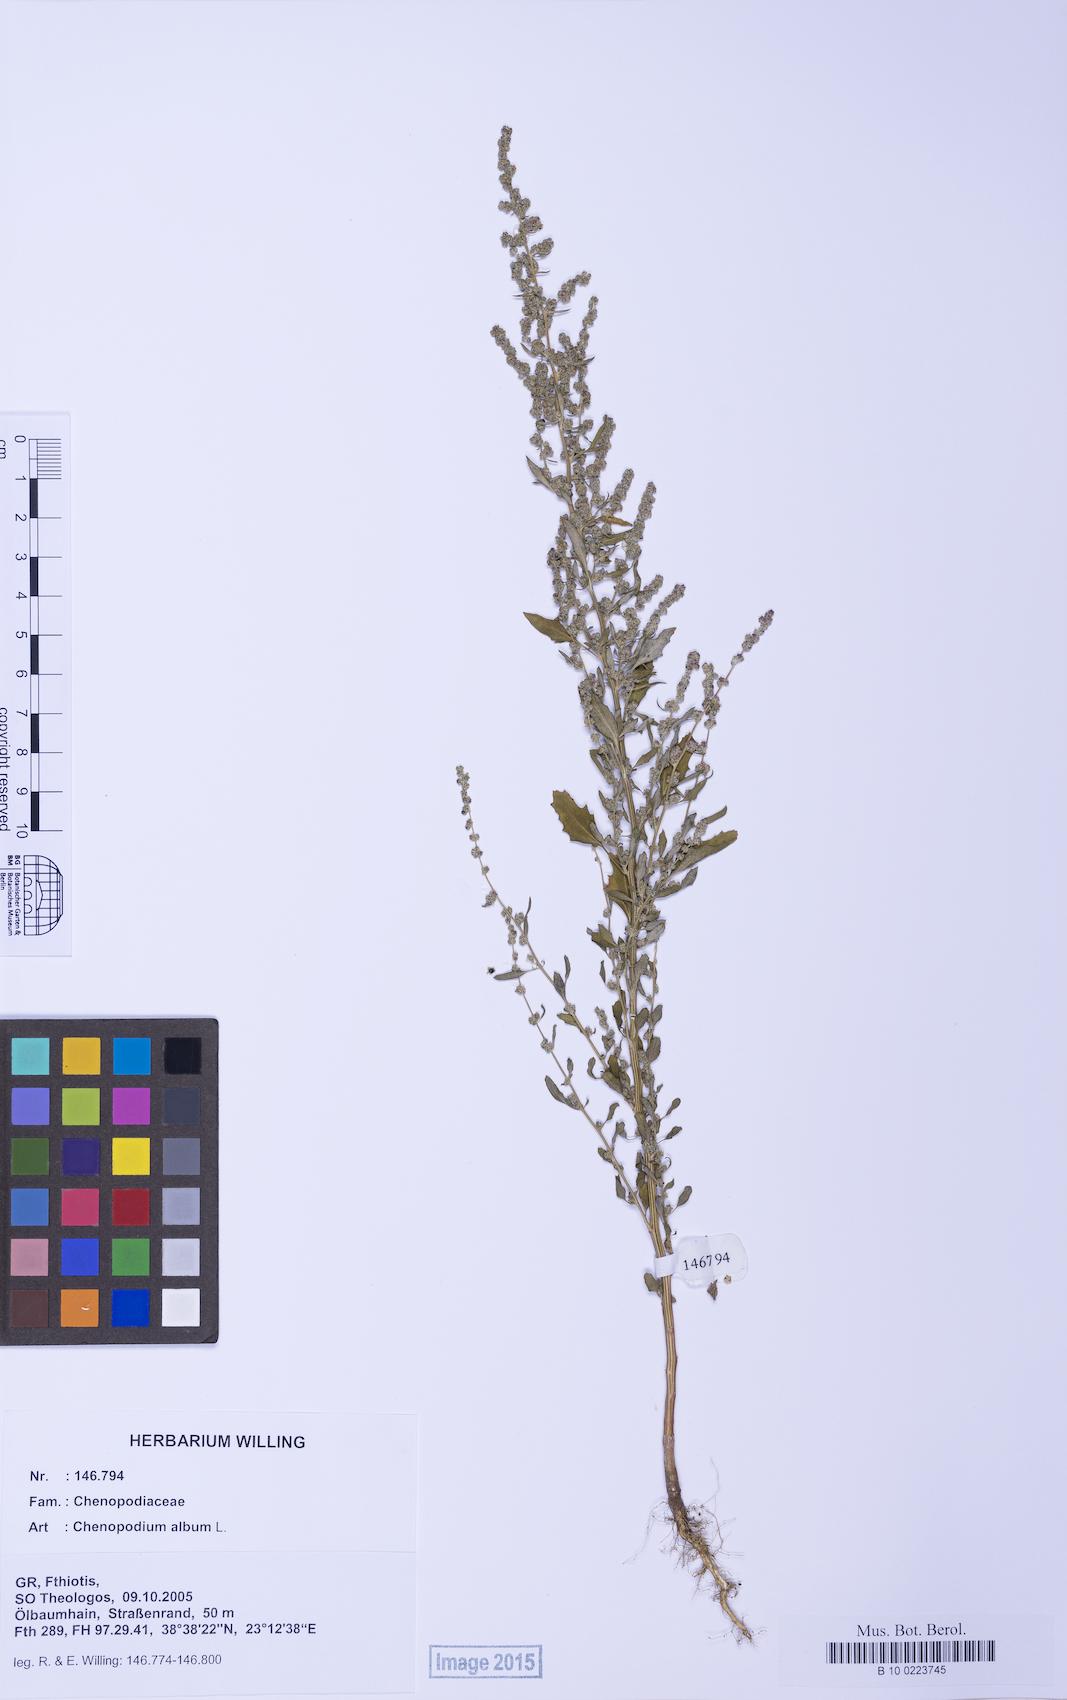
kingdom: Plantae
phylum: Tracheophyta
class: Magnoliopsida
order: Caryophyllales
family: Amaranthaceae
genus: Chenopodium
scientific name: Chenopodium album
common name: Fat-hen
